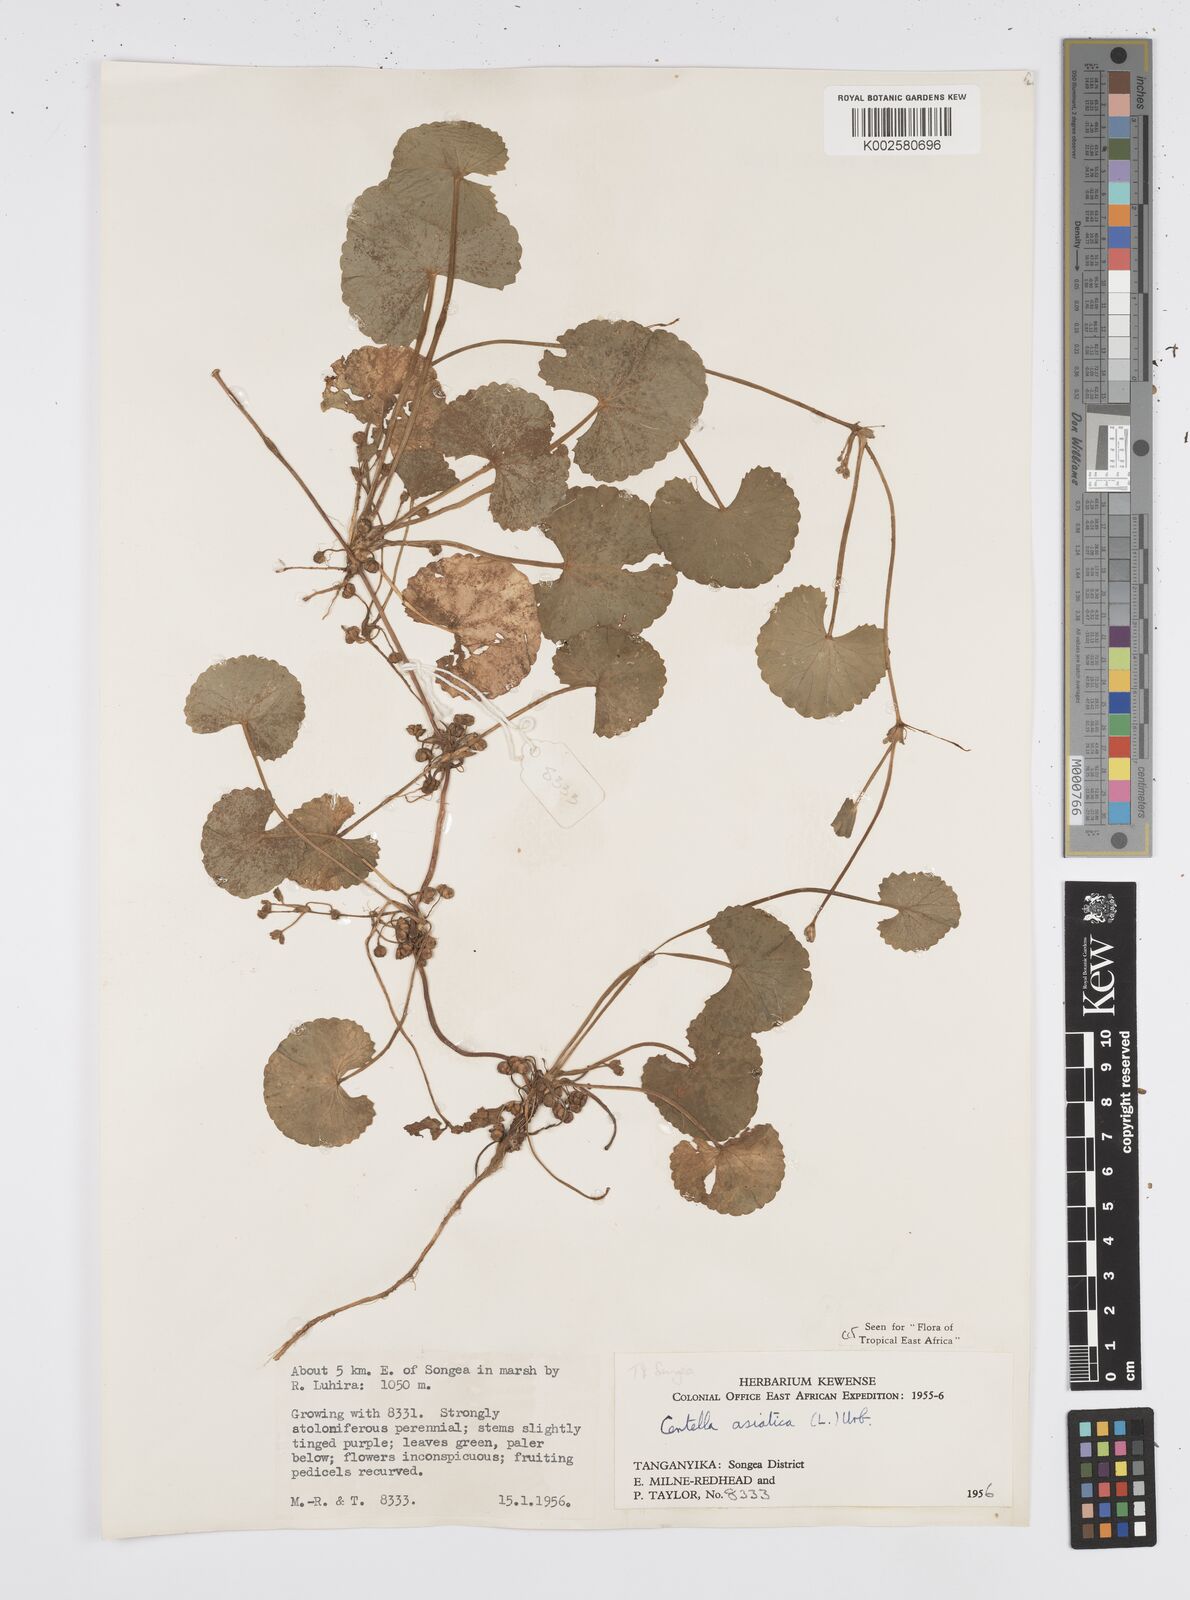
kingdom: Plantae
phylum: Tracheophyta
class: Magnoliopsida
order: Apiales
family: Apiaceae
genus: Centella
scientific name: Centella asiatica
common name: Spadeleaf
